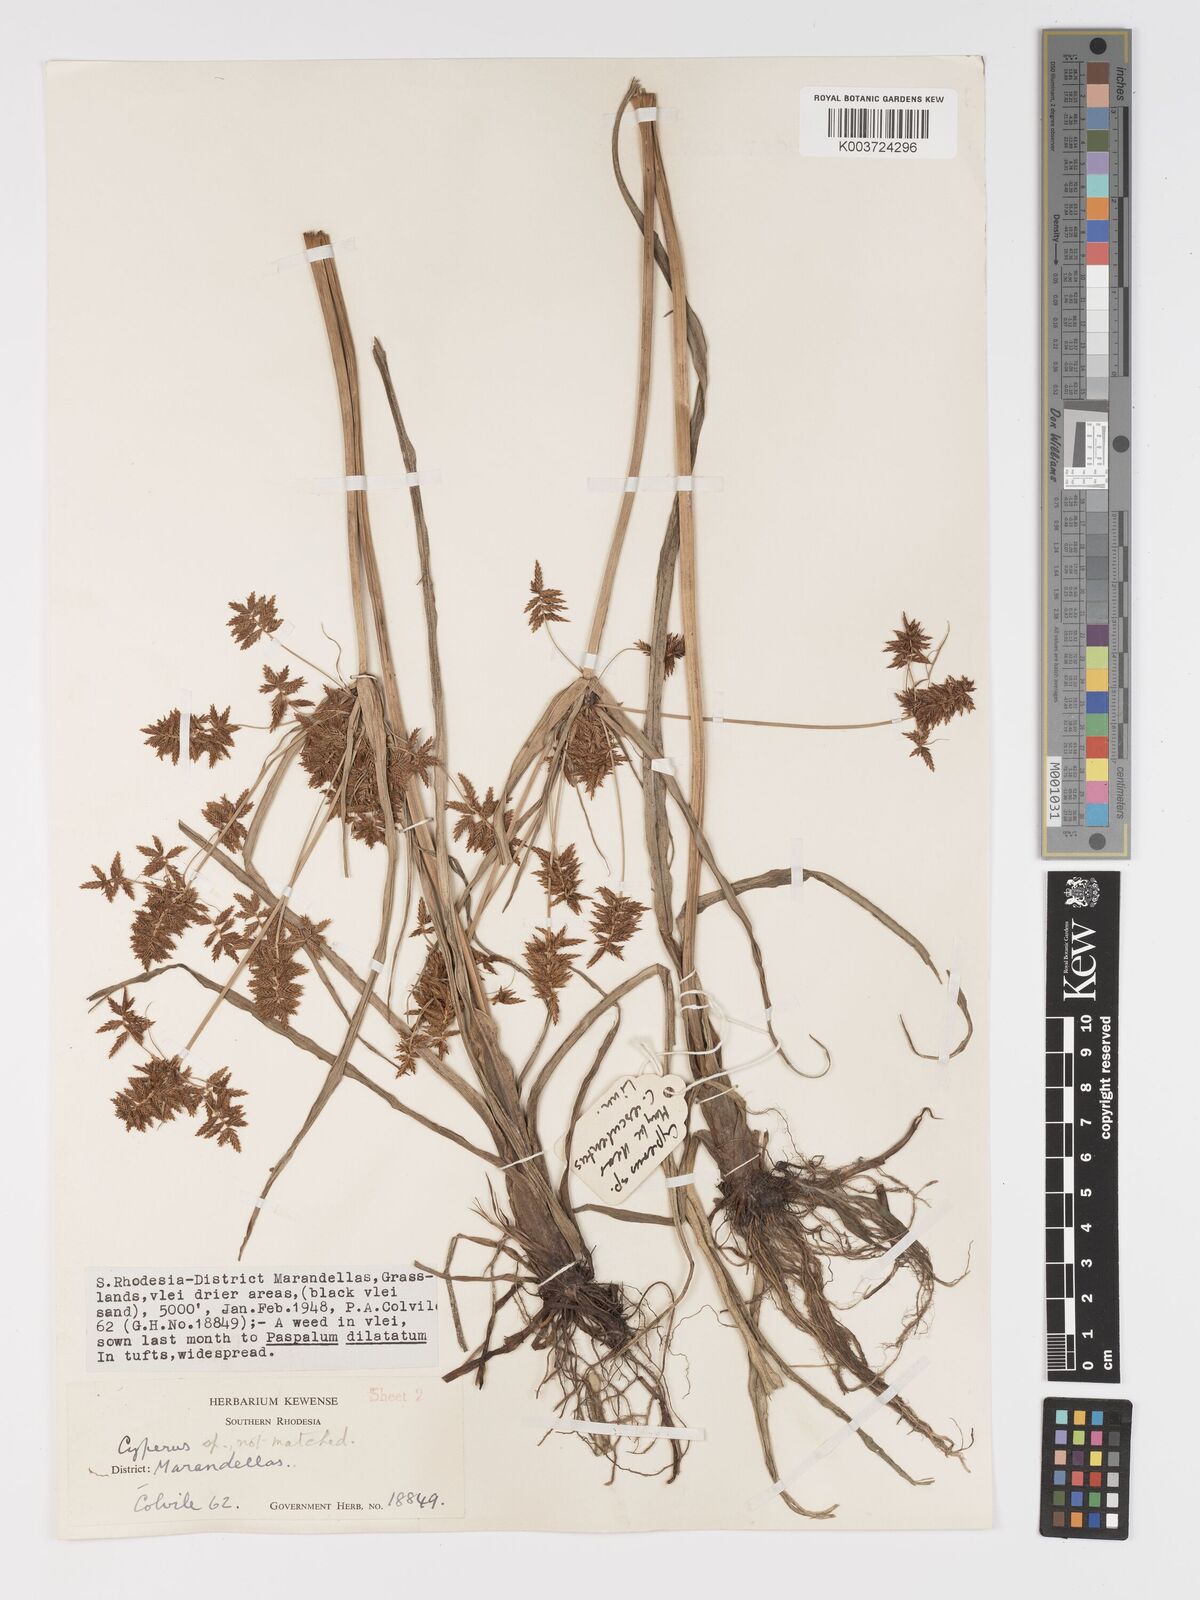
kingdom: Plantae
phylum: Tracheophyta
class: Liliopsida
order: Poales
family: Cyperaceae
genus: Cyperus
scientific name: Cyperus
